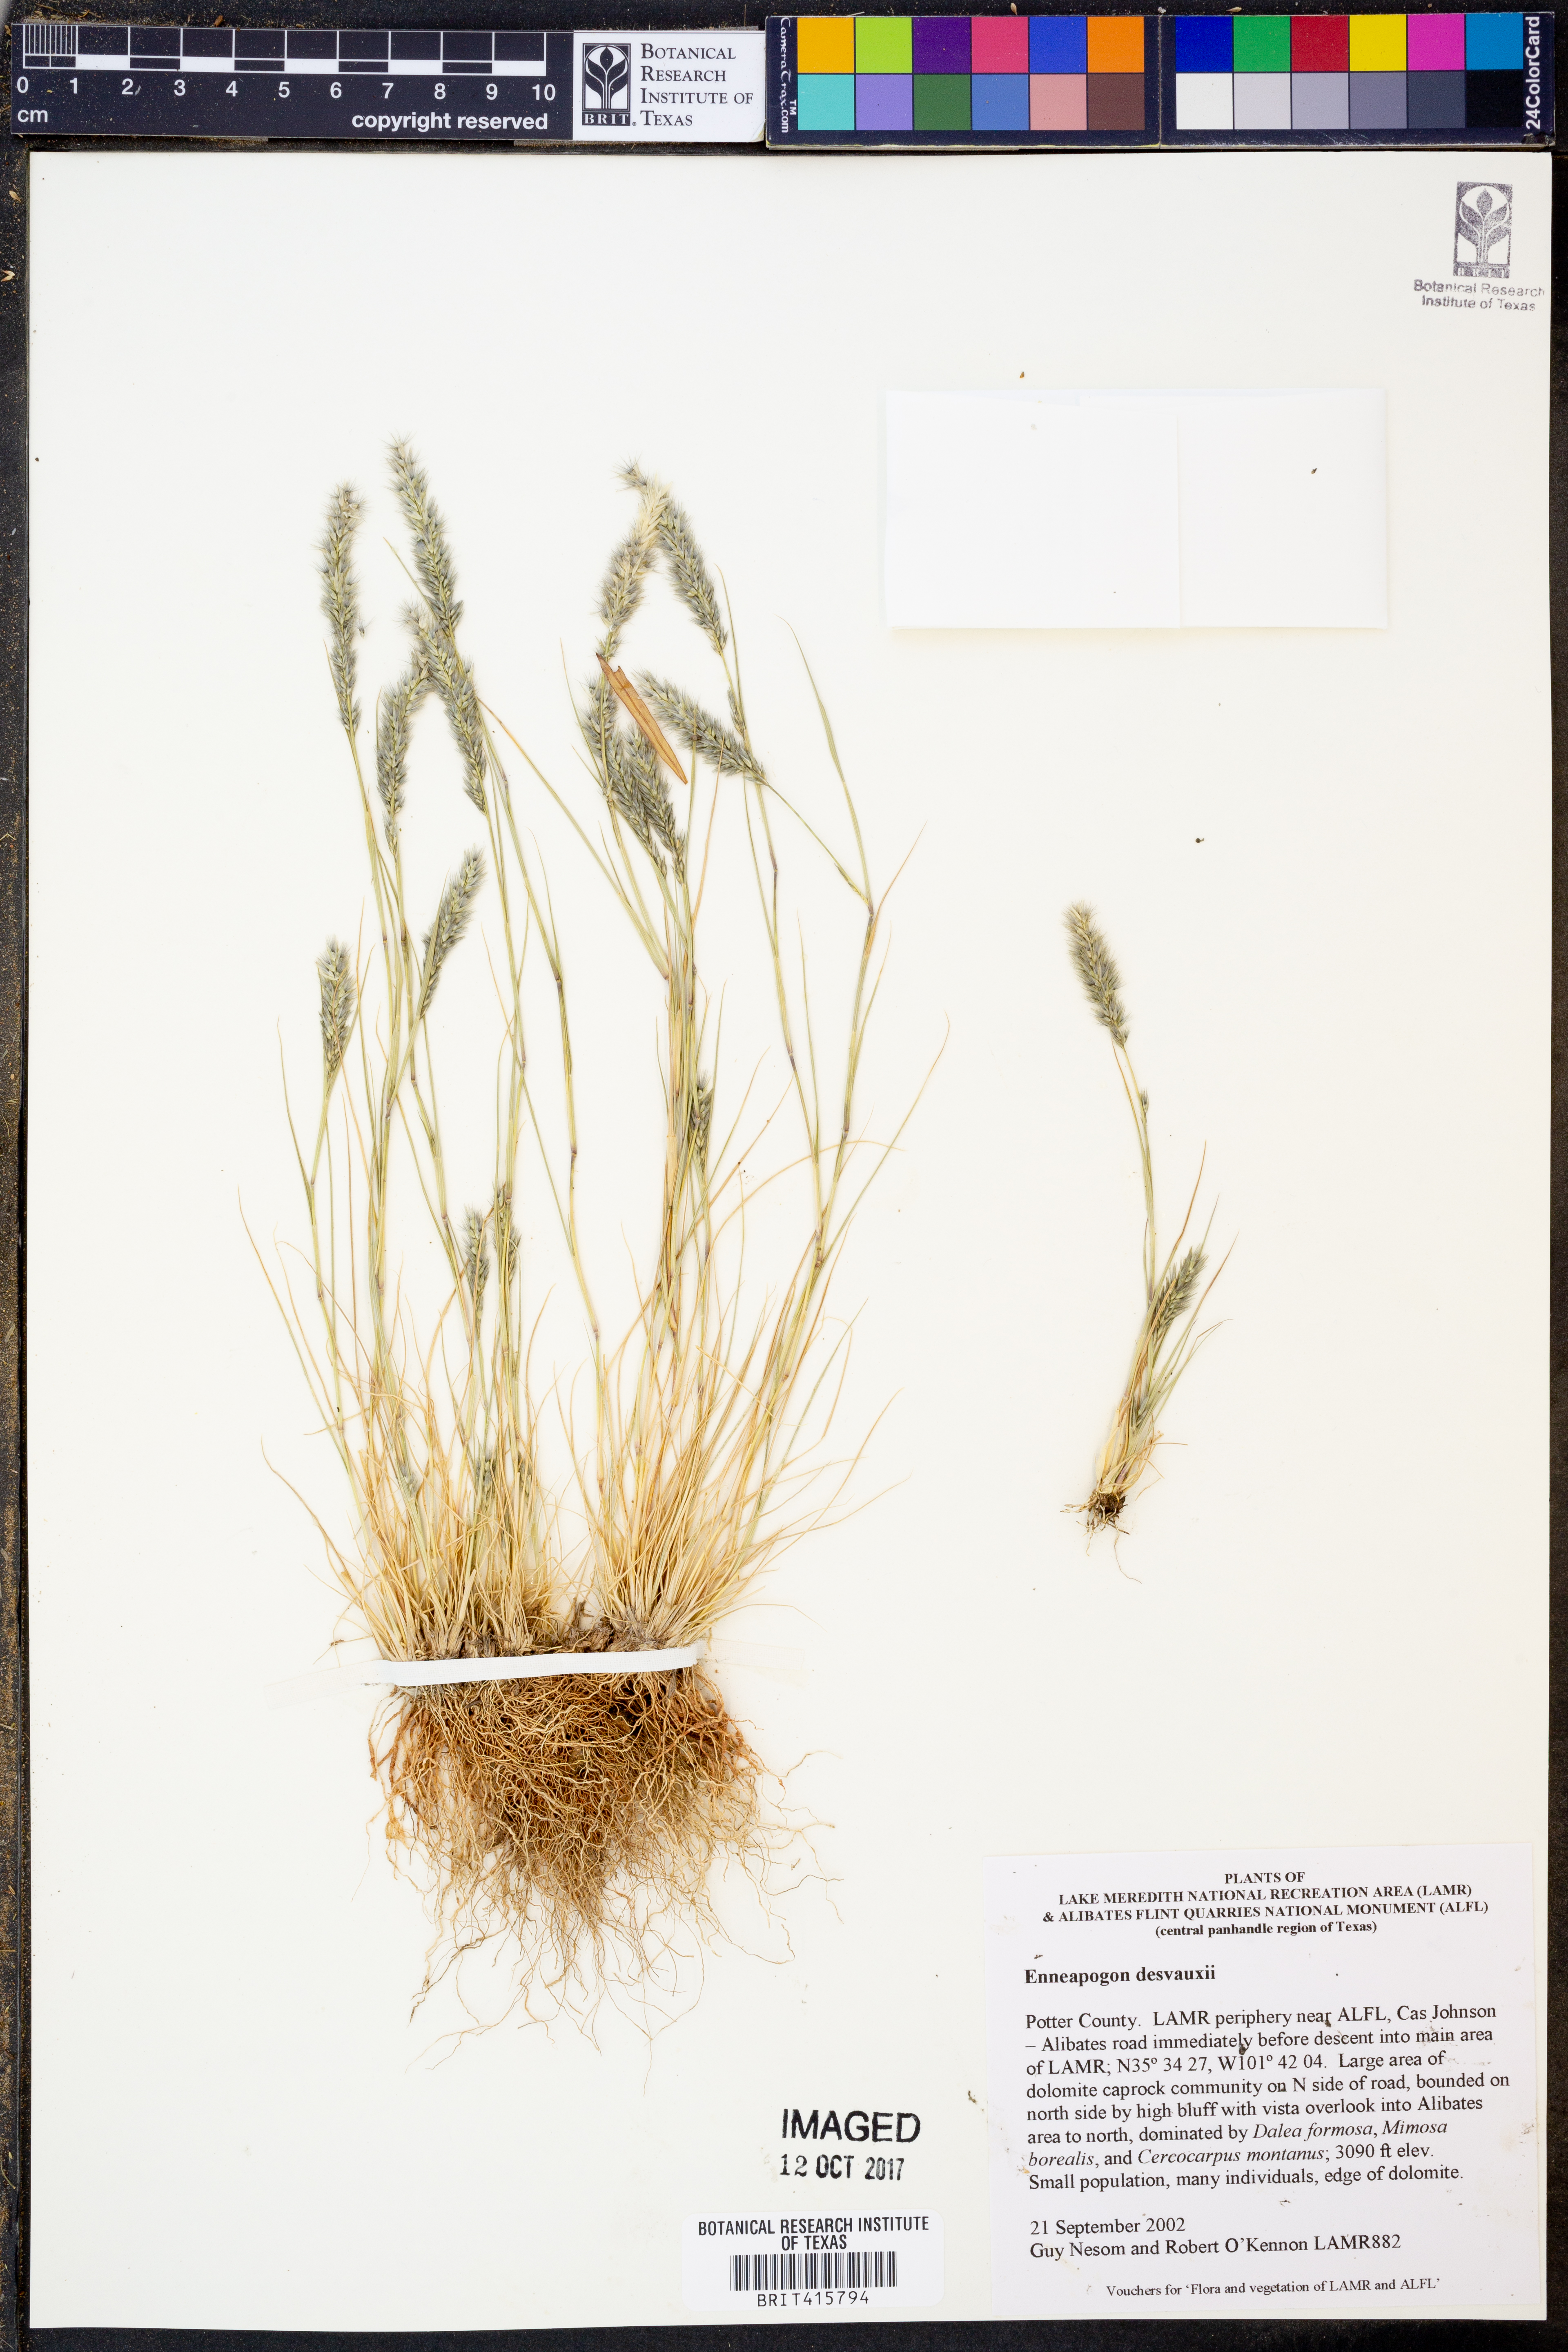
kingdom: Plantae
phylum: Tracheophyta
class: Liliopsida
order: Poales
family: Poaceae
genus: Enneapogon
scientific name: Enneapogon desvauxii
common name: Feather pappus grass
